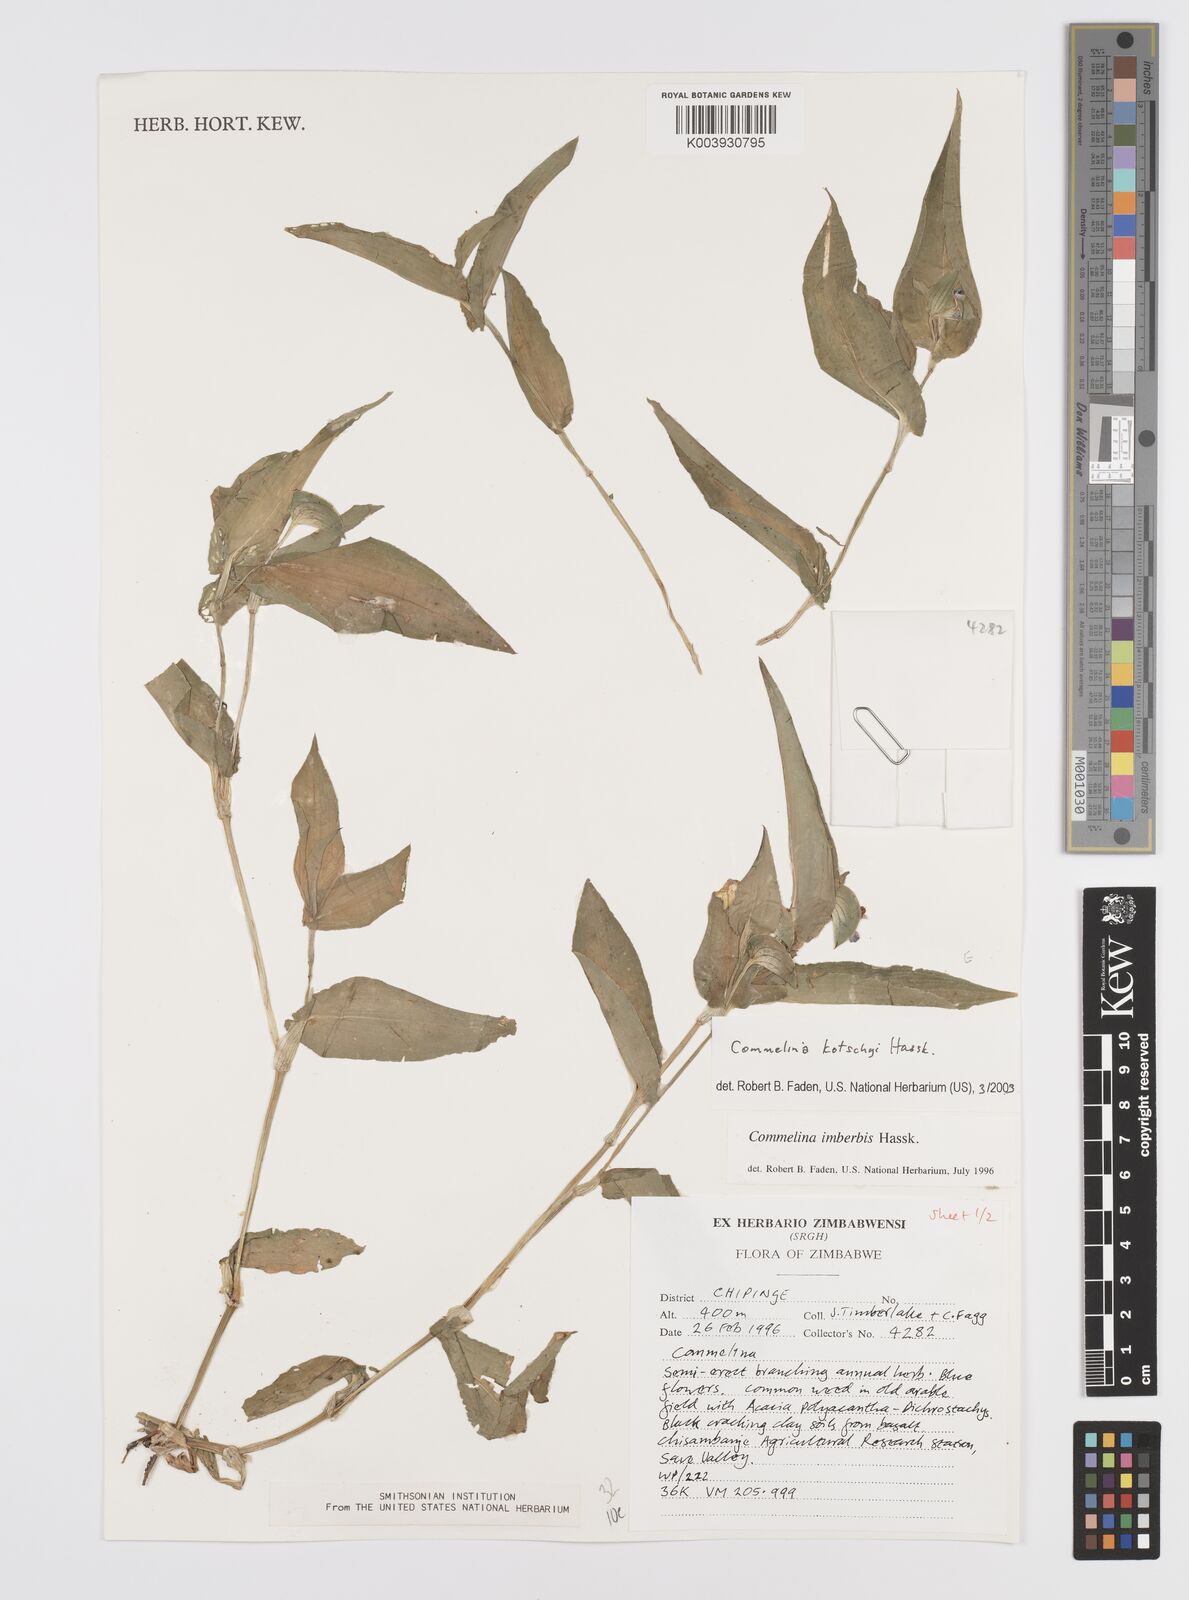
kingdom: Plantae
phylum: Tracheophyta
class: Liliopsida
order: Commelinales
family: Commelinaceae
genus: Commelina
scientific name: Commelina kotschyi
